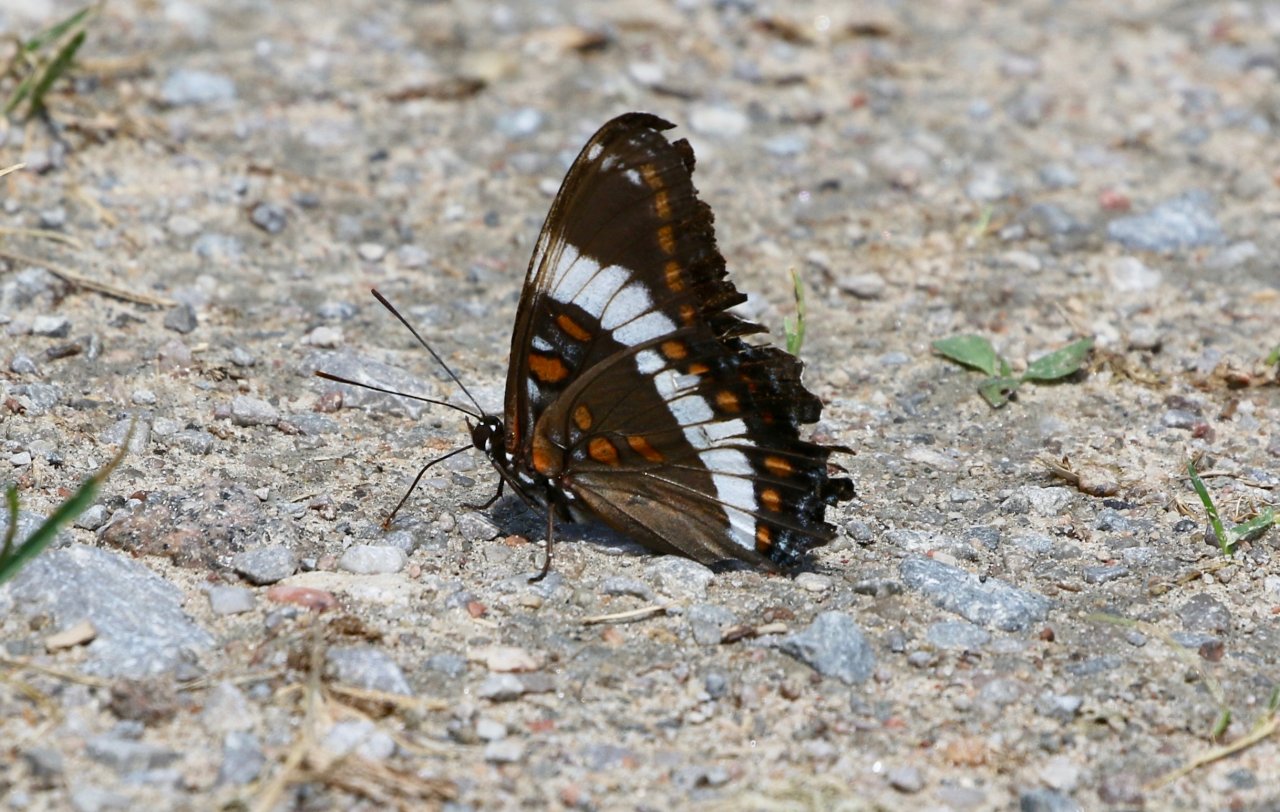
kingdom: Animalia
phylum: Arthropoda
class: Insecta
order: Lepidoptera
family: Nymphalidae
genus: Limenitis
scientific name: Limenitis arthemis
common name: Red-spotted Admiral
